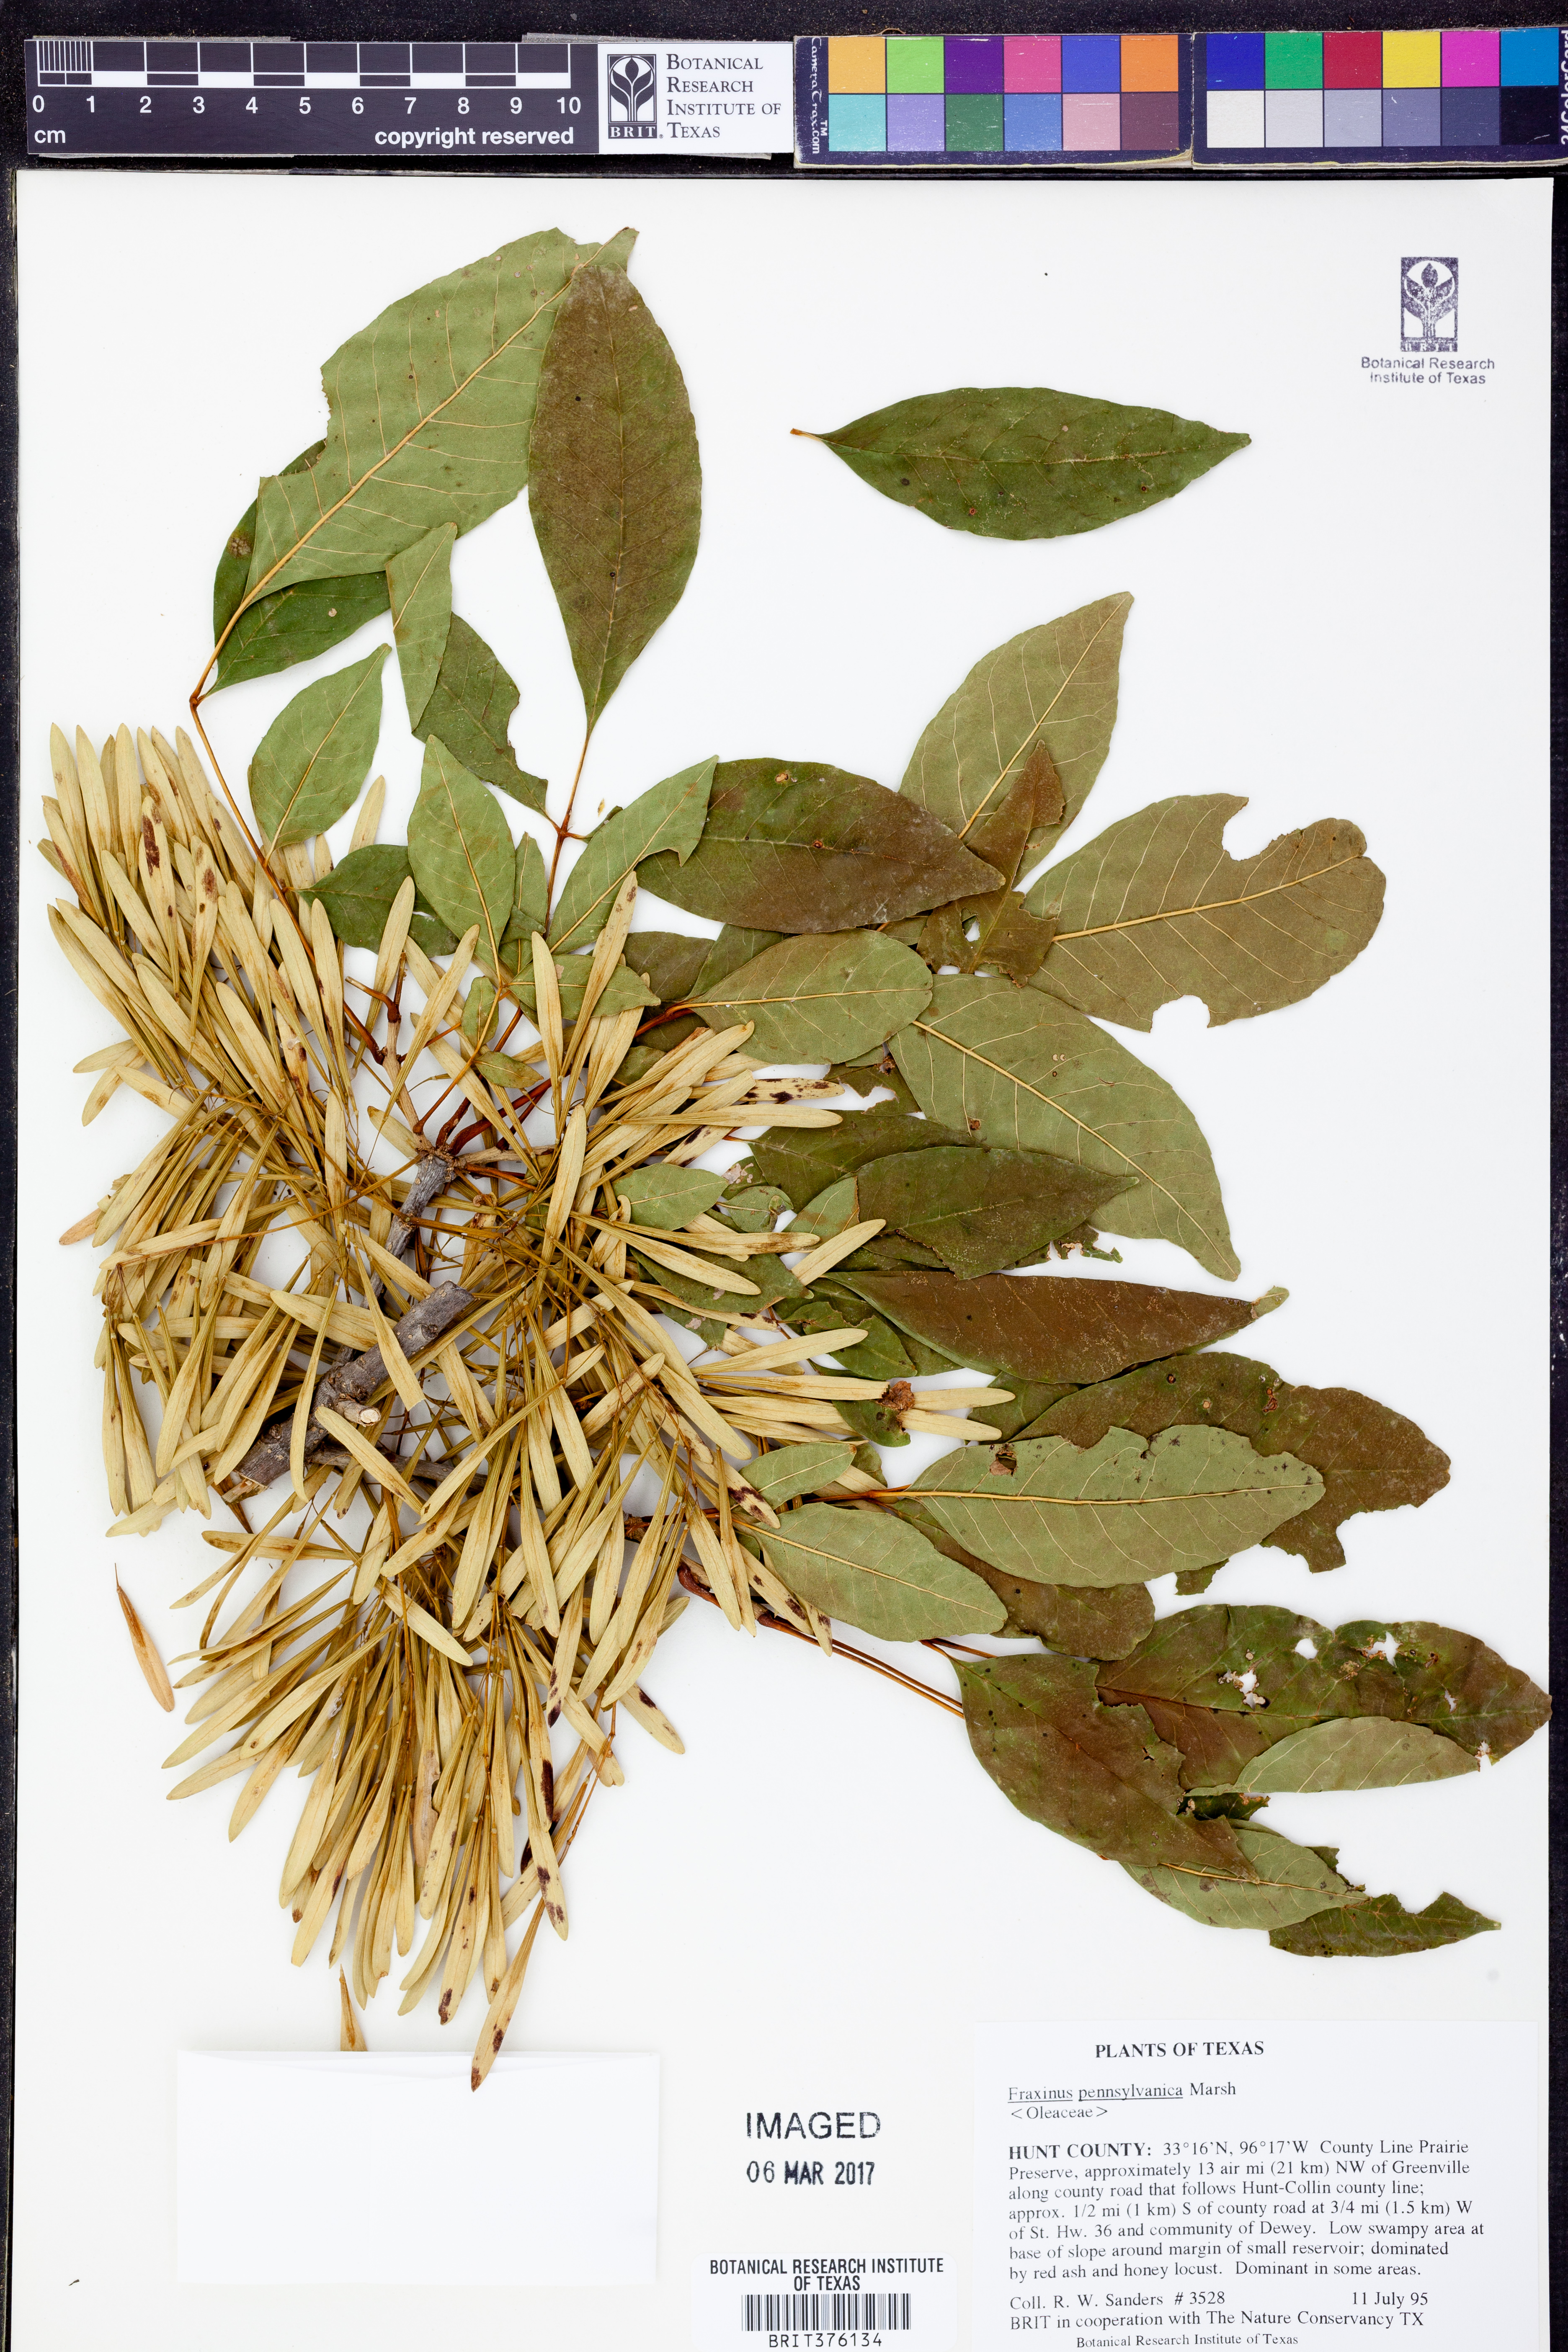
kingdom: Plantae
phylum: Tracheophyta
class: Magnoliopsida
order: Lamiales
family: Oleaceae
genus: Fraxinus
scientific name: Fraxinus pennsylvanica
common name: Green ash
